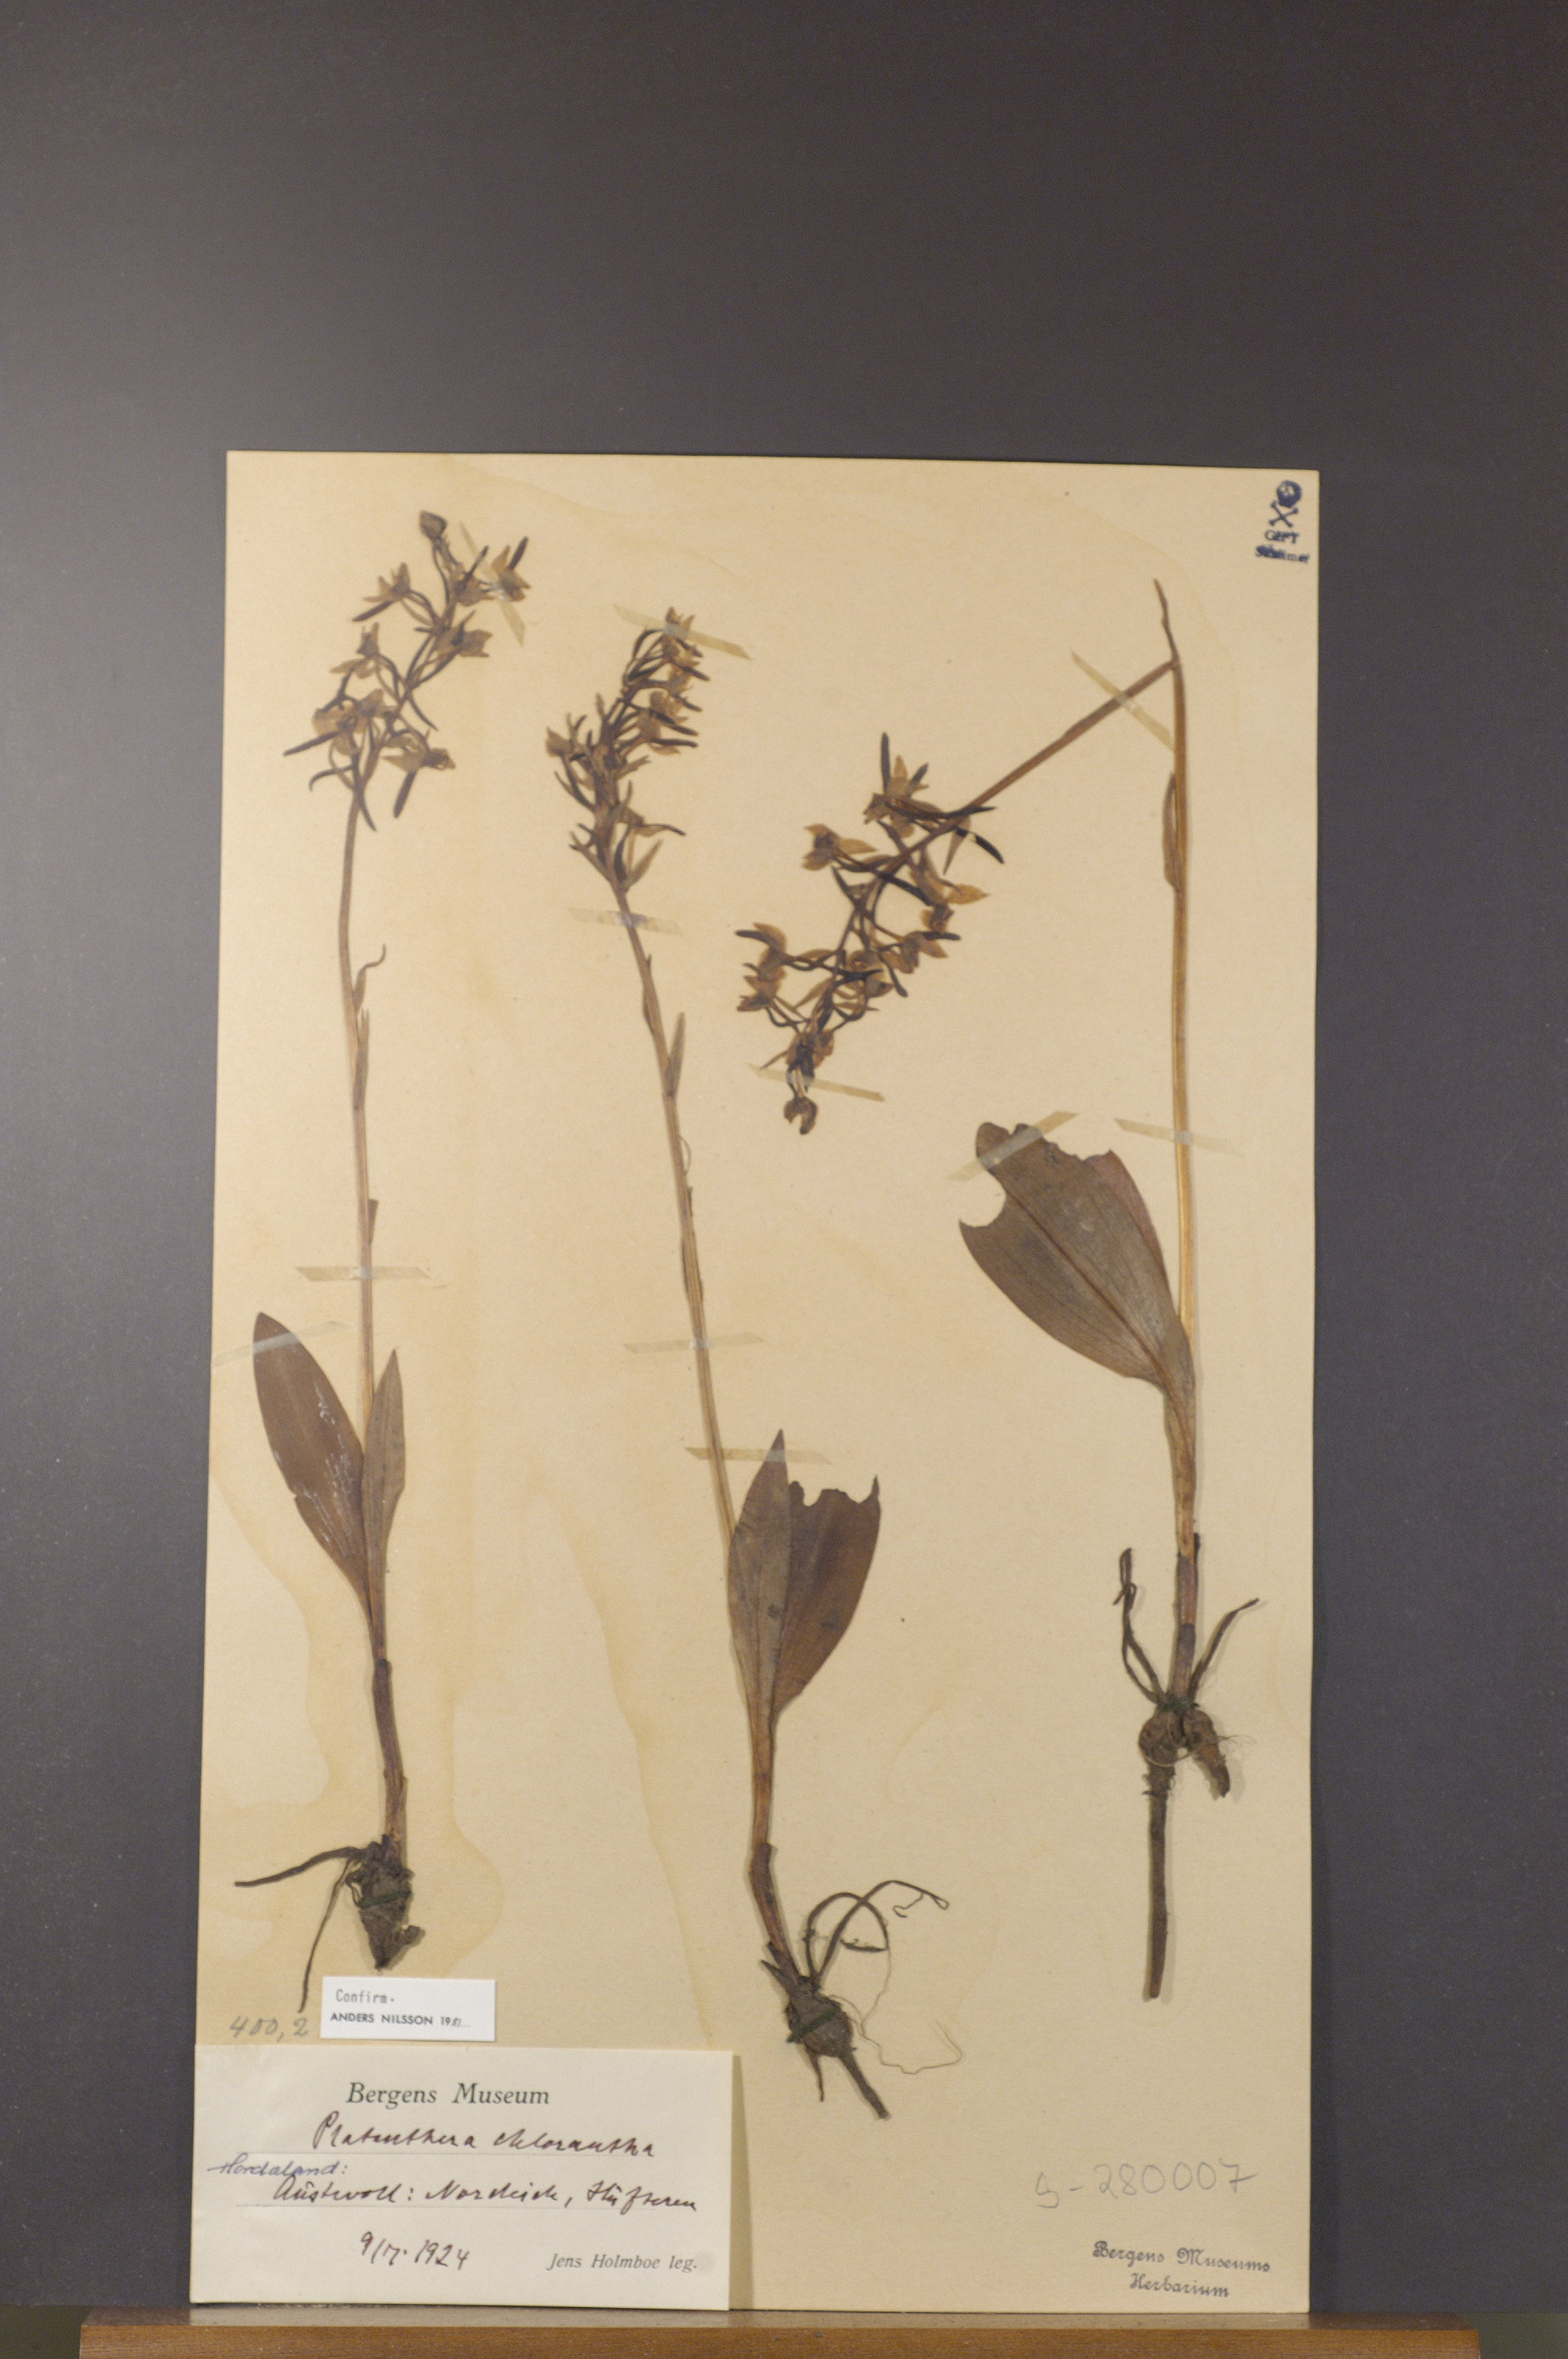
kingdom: Plantae
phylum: Tracheophyta
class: Liliopsida
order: Asparagales
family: Orchidaceae
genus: Platanthera
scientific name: Platanthera chlorantha
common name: Greater butterfly-orchid
